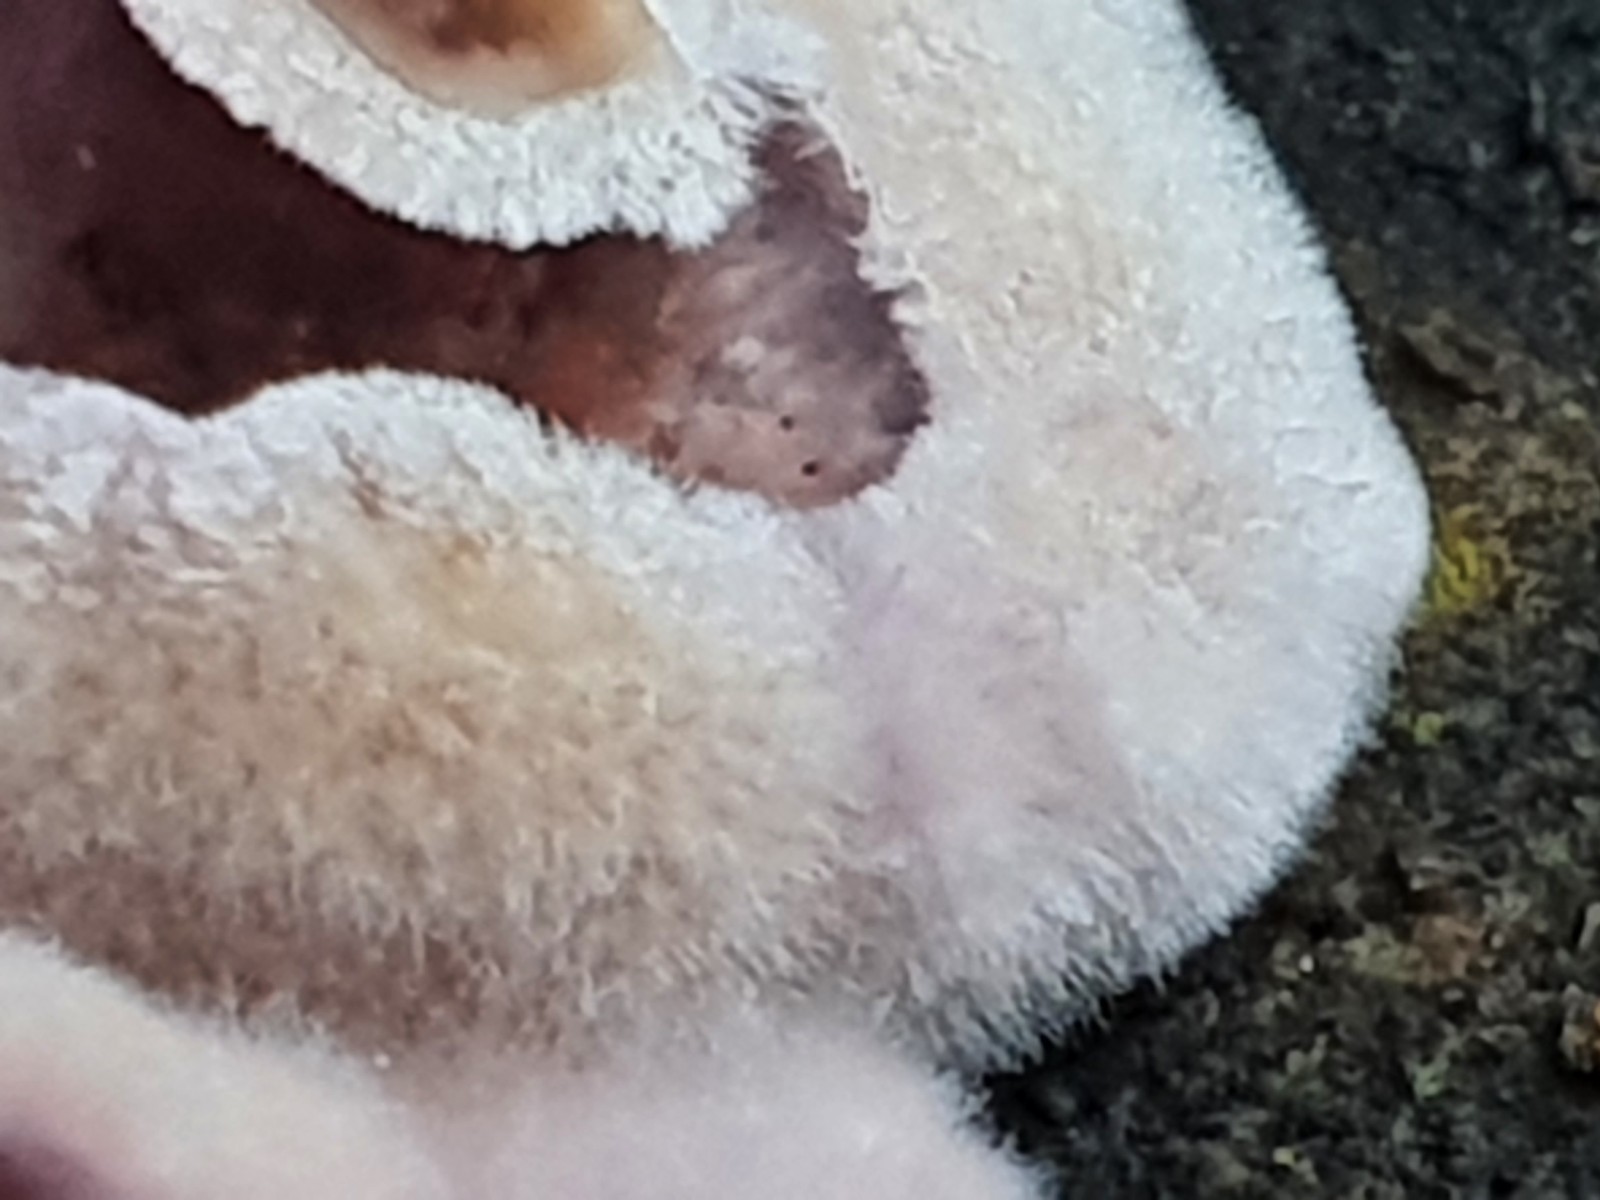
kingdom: Fungi
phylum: Basidiomycota
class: Agaricomycetes
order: Agaricales
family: Cyphellaceae
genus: Chondrostereum
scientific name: Chondrostereum purpureum
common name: purpurlædersvamp
